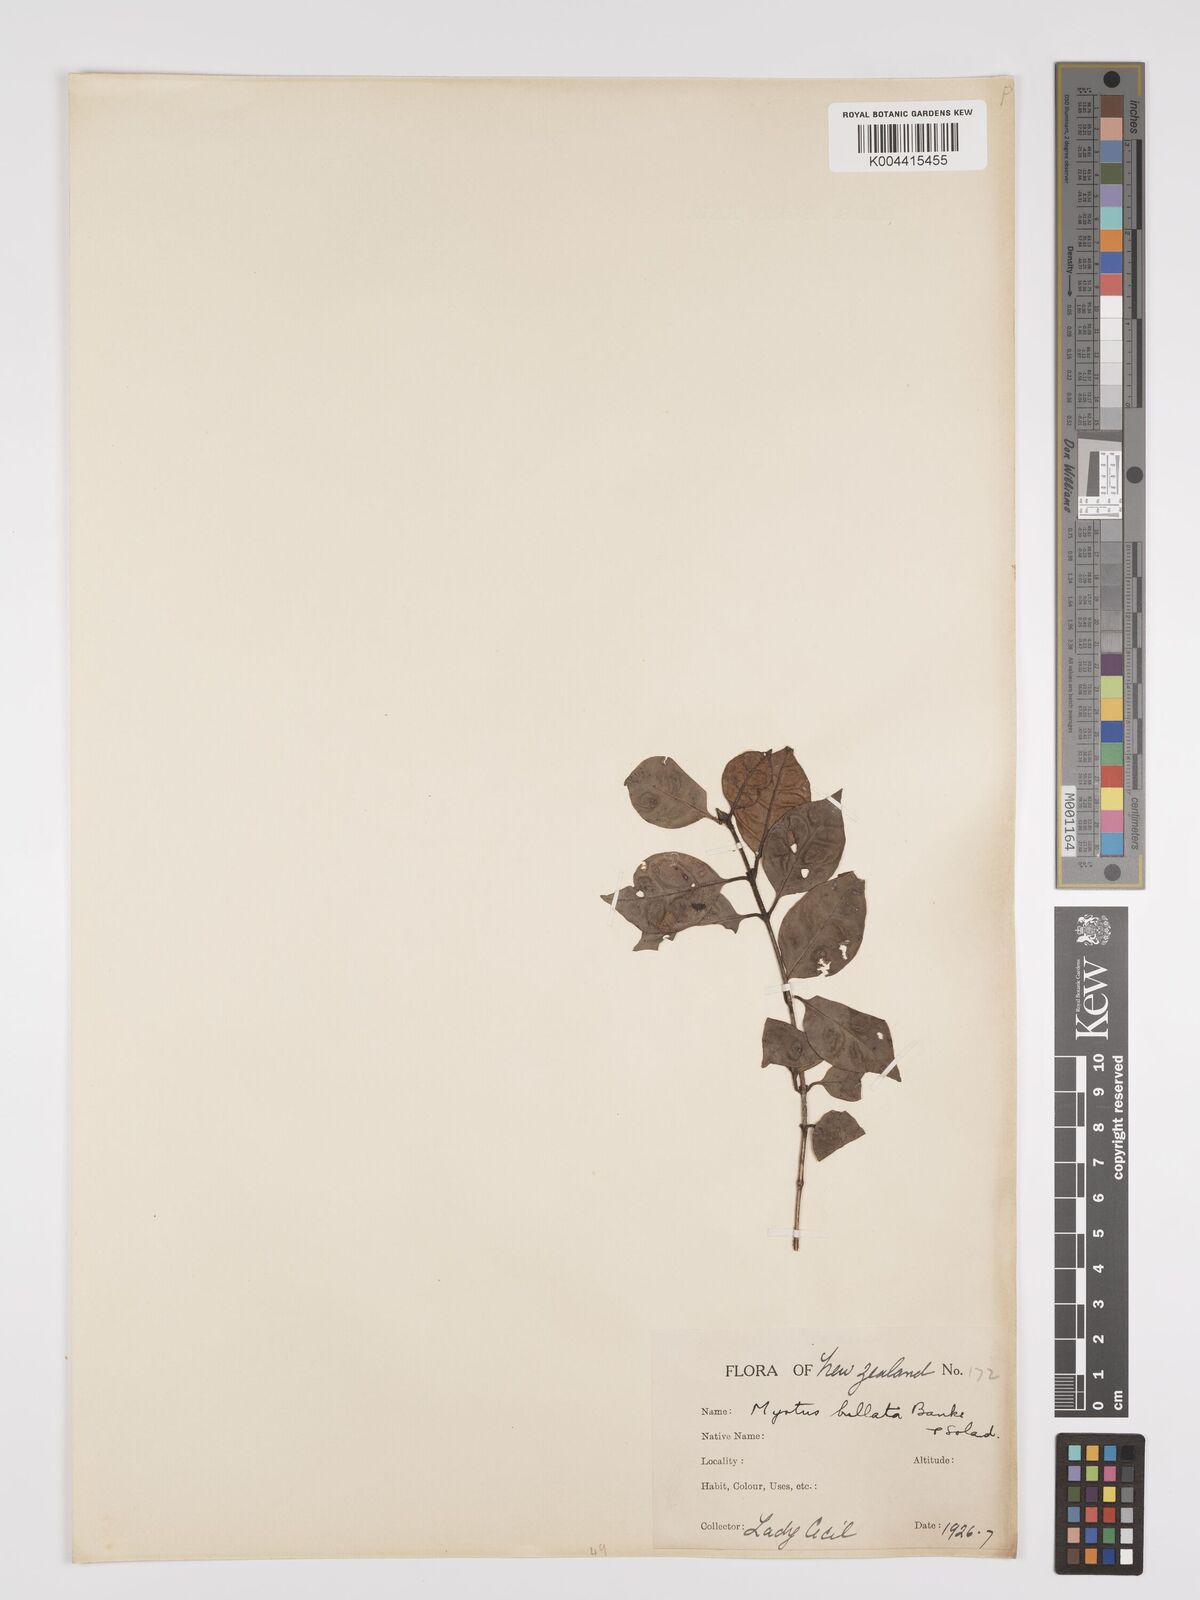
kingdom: Plantae
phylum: Tracheophyta
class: Magnoliopsida
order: Myrtales
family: Myrtaceae
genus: Lophomyrtus
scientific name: Lophomyrtus bullata
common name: Rama rama
